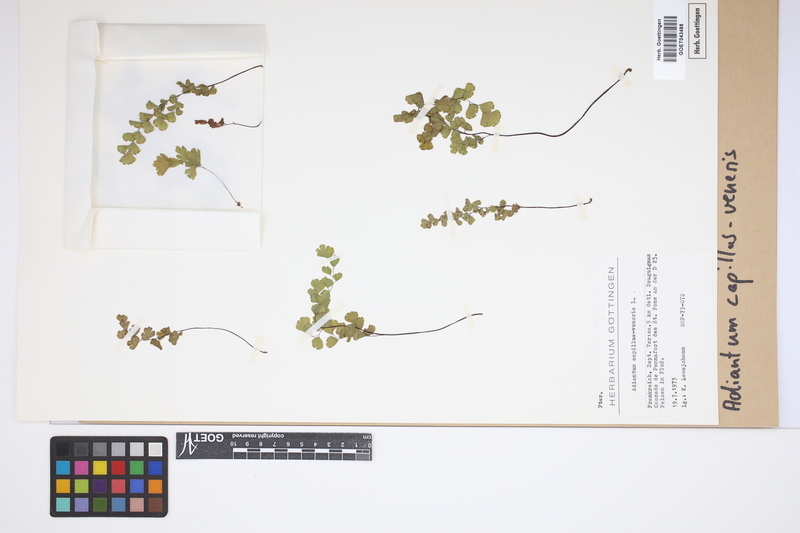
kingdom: Plantae
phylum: Tracheophyta
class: Polypodiopsida
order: Polypodiales
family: Pteridaceae
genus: Adiantum
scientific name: Adiantum capillus-veneris
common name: Maidenhair fern
